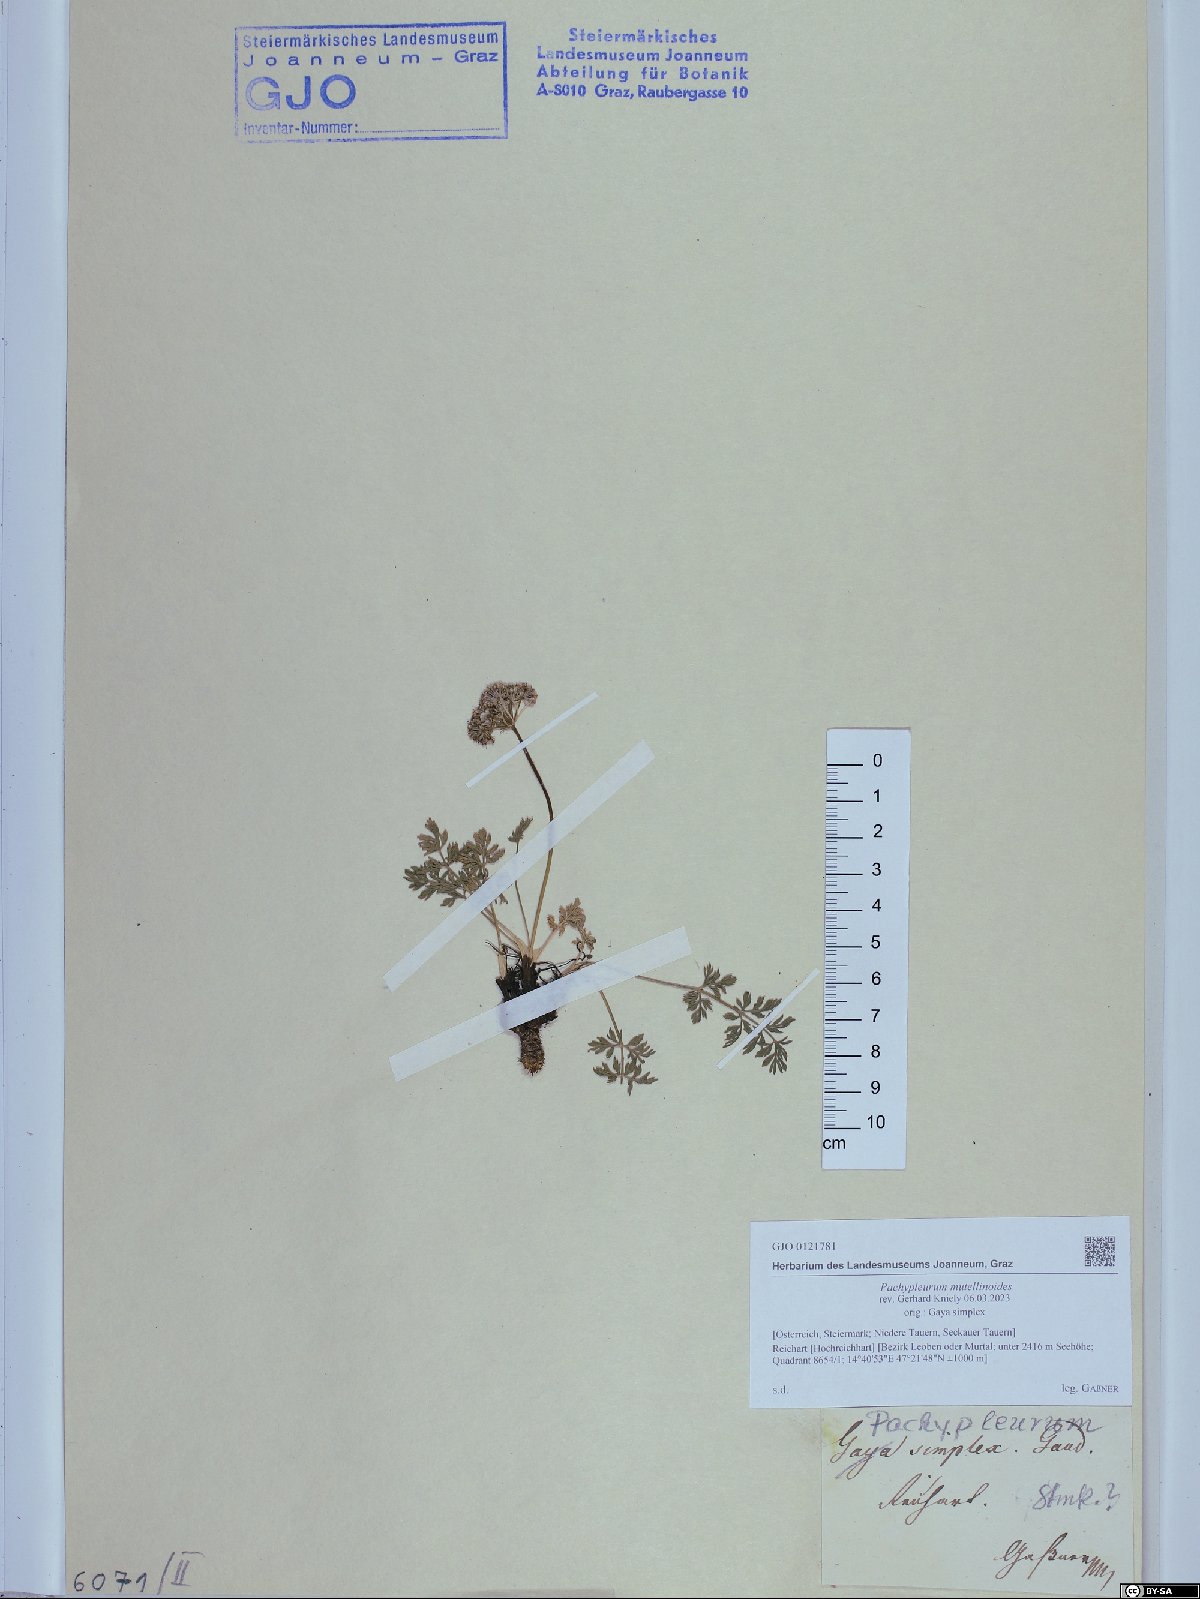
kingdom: Plantae
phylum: Tracheophyta
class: Magnoliopsida
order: Apiales
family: Apiaceae
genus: Pachypleurum
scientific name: Pachypleurum mutellinoides
